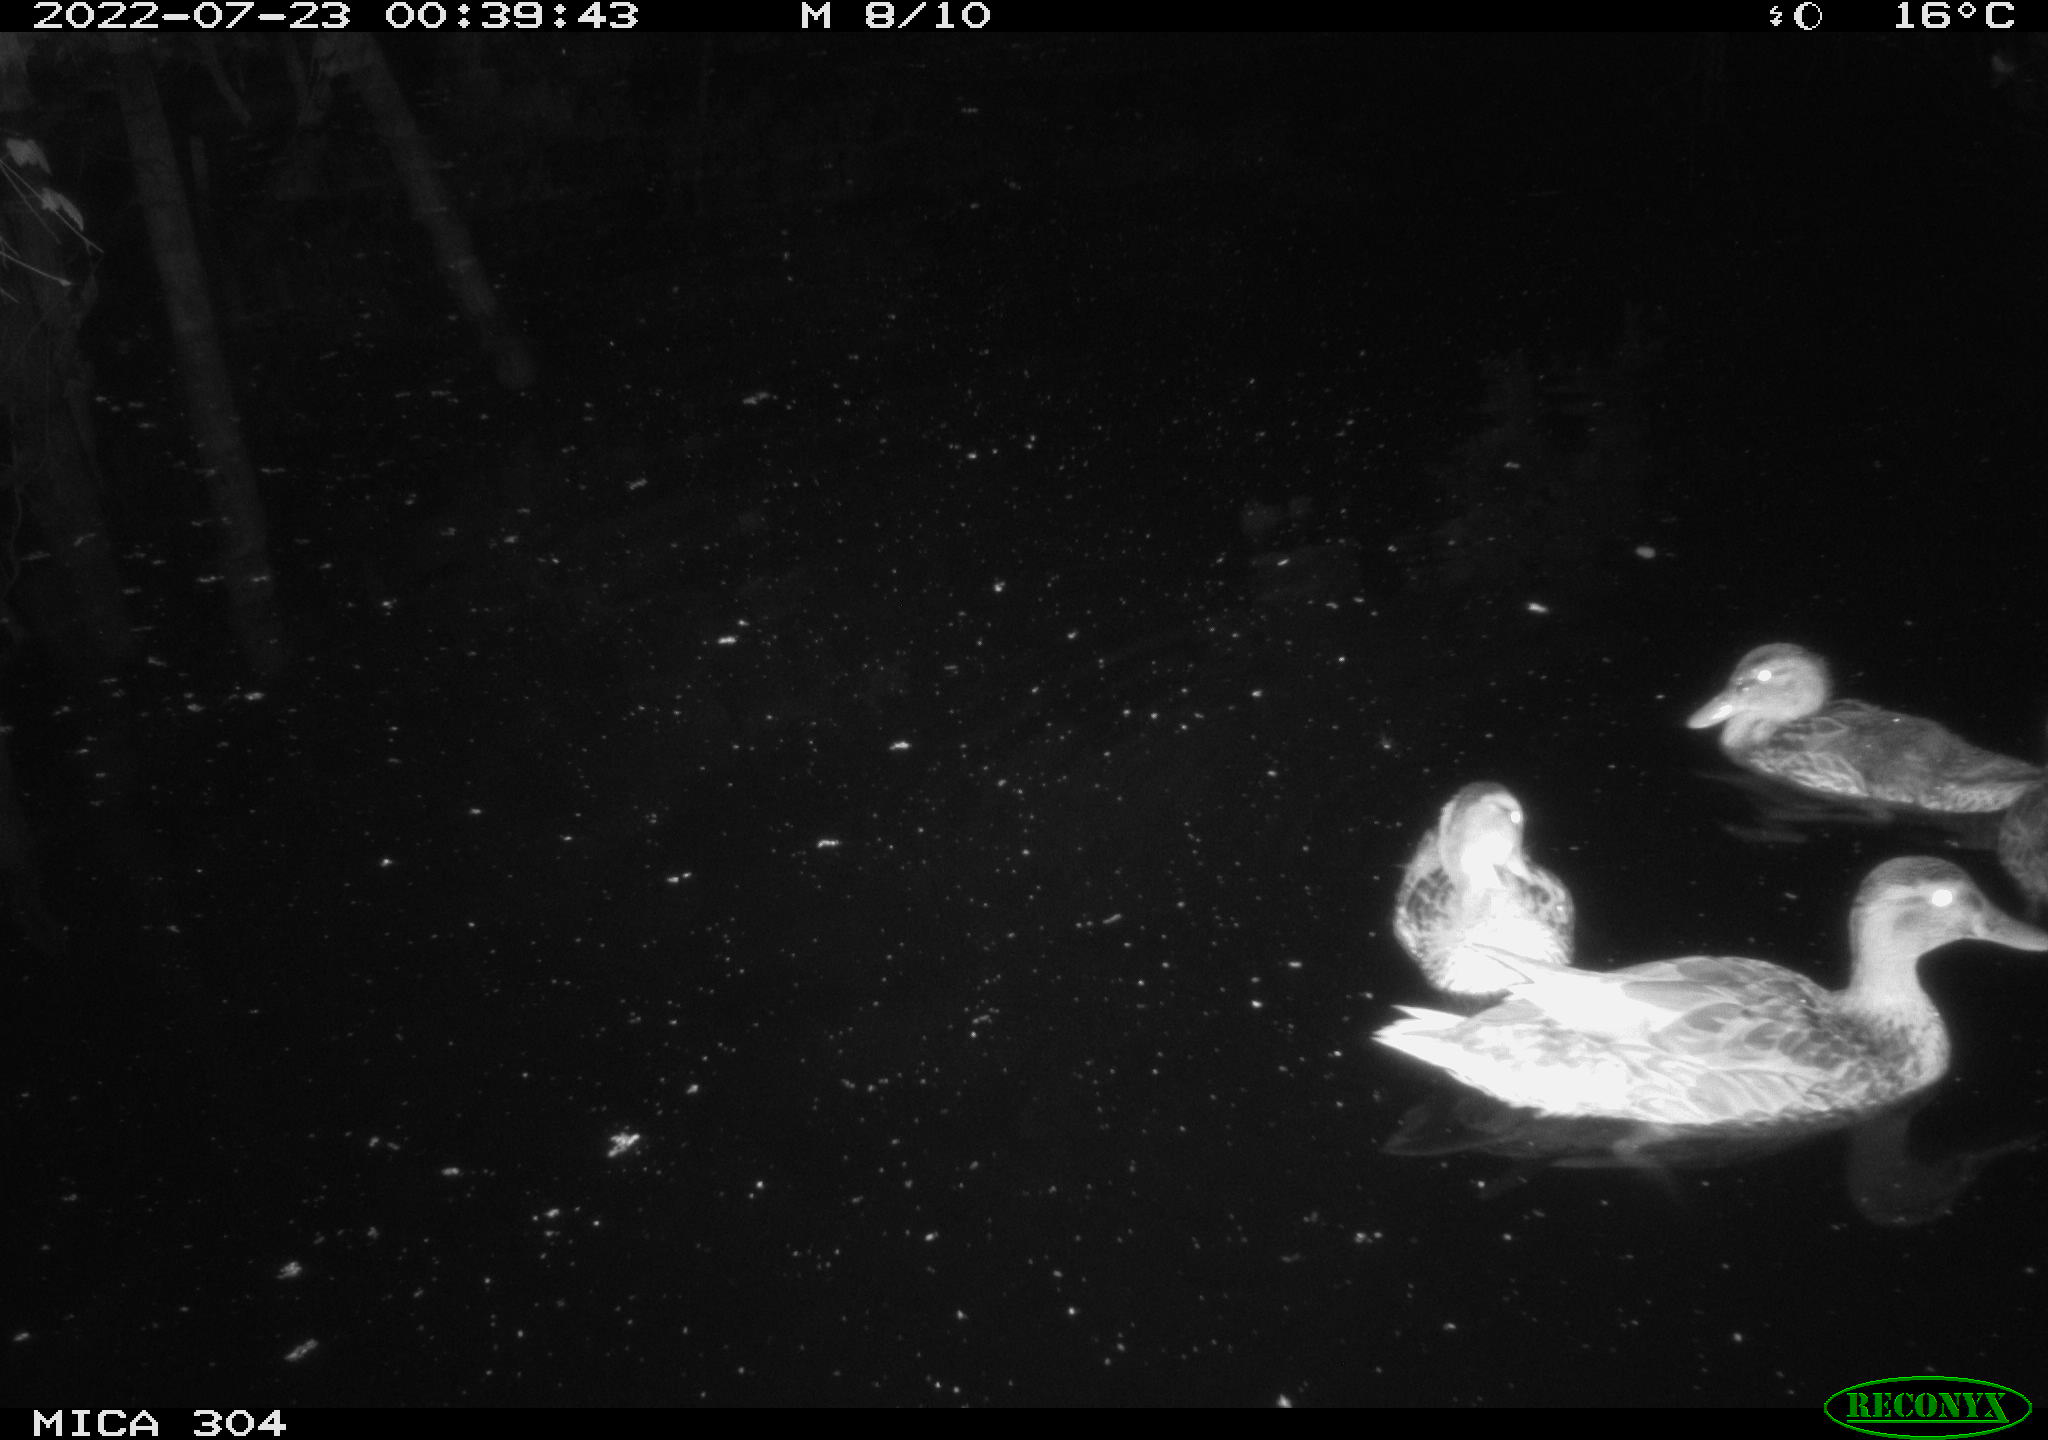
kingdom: Animalia
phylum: Chordata
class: Aves
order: Anseriformes
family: Anatidae
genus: Anas
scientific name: Anas platyrhynchos
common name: Mallard
